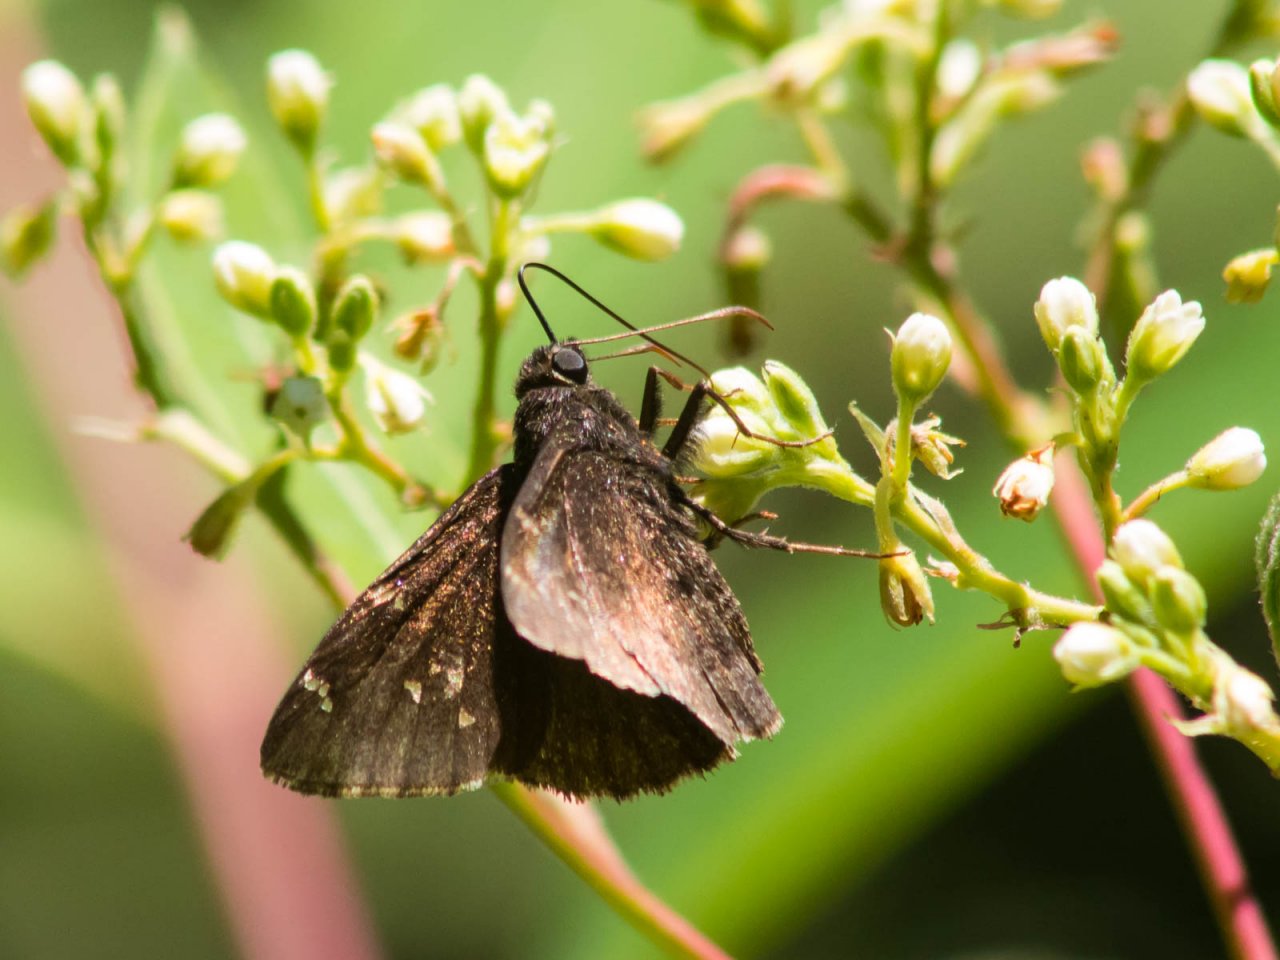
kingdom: Animalia
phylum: Arthropoda
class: Insecta
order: Lepidoptera
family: Hesperiidae
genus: Autochton
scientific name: Autochton
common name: Northern Cloudywing
